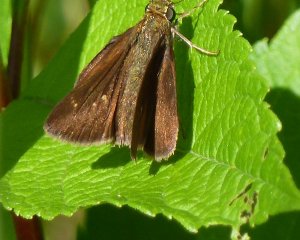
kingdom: Animalia
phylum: Arthropoda
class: Insecta
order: Lepidoptera
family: Hesperiidae
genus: Polites
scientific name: Polites egeremet
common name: Northern Broken-Dash
